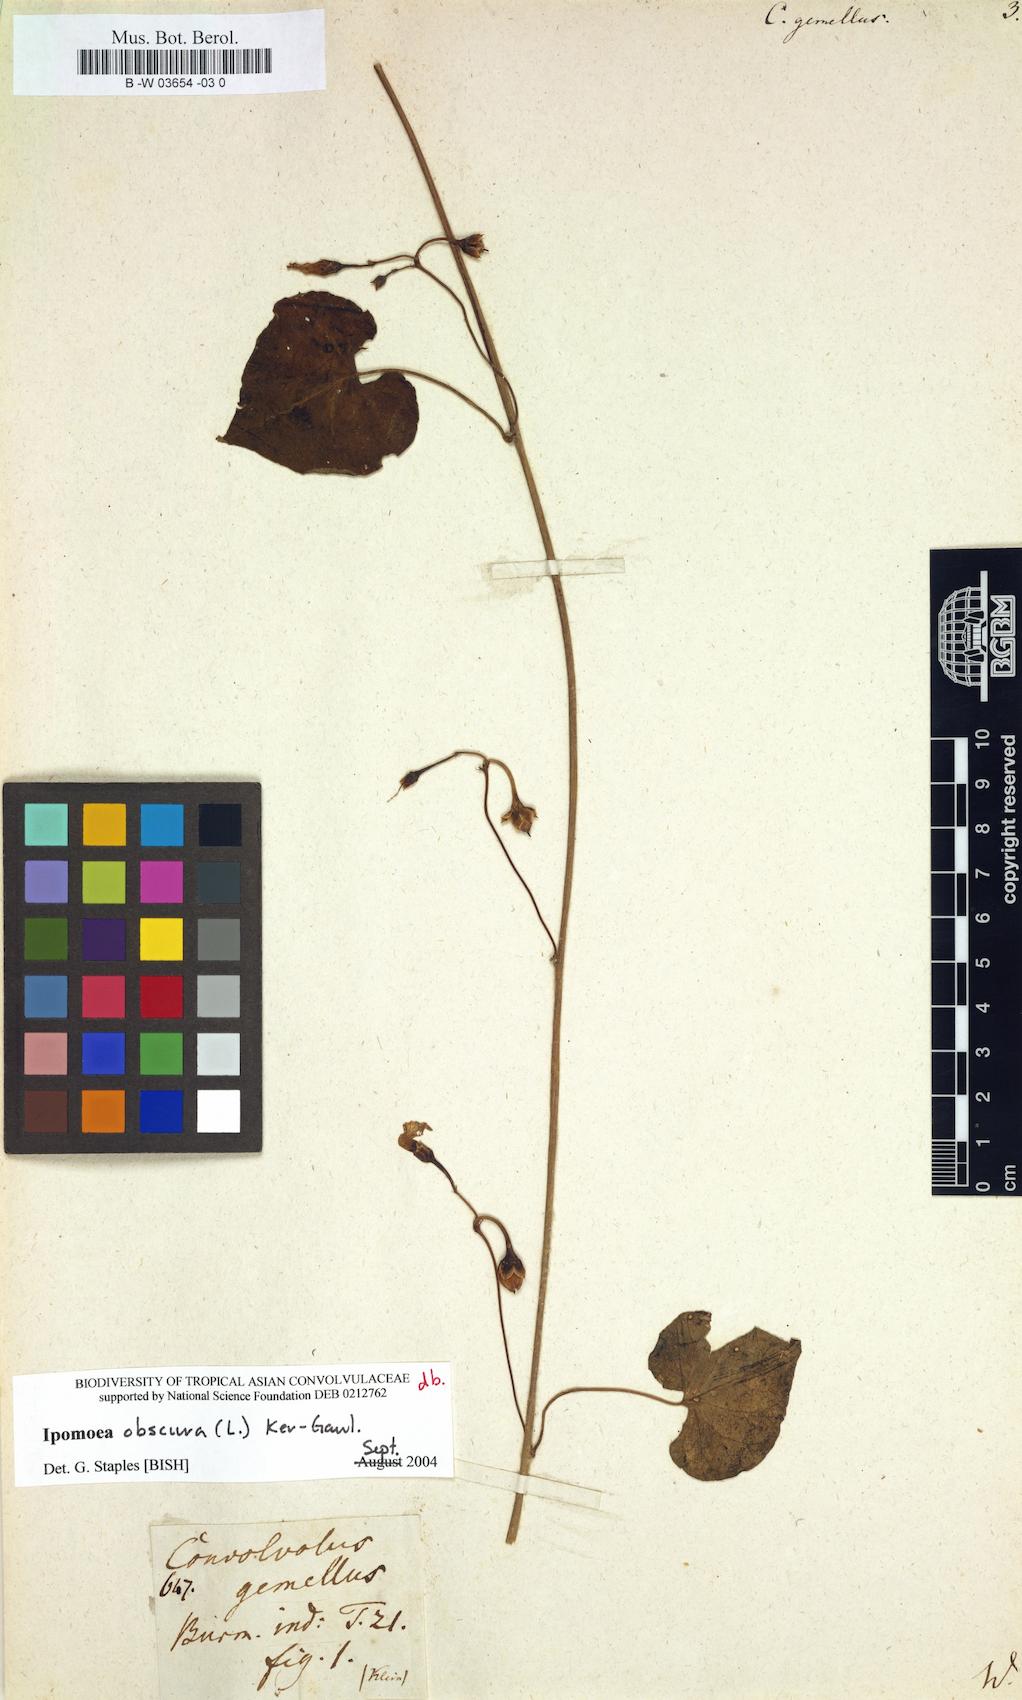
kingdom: Plantae
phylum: Tracheophyta
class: Magnoliopsida
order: Solanales
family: Convolvulaceae
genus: Merremia
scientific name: Merremia gemella
